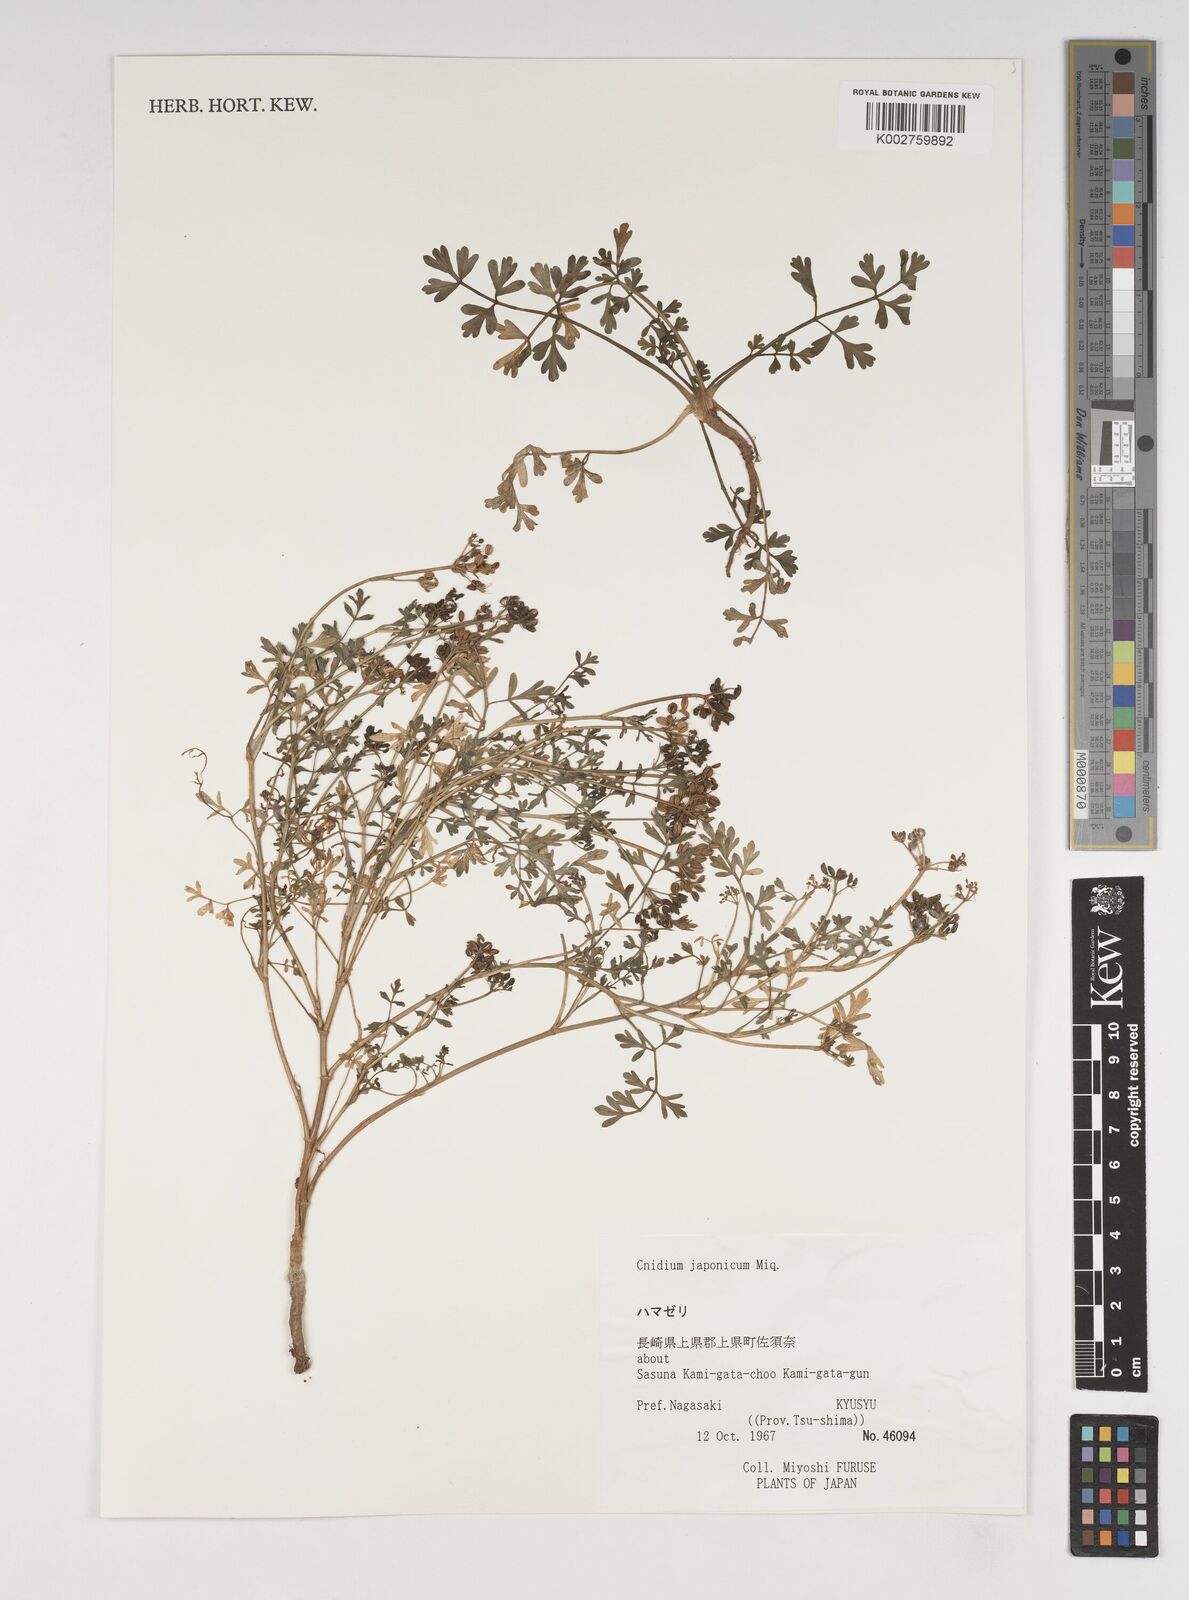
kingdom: Plantae
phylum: Tracheophyta
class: Magnoliopsida
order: Apiales
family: Apiaceae
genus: Cnidium
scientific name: Cnidium japonicum
